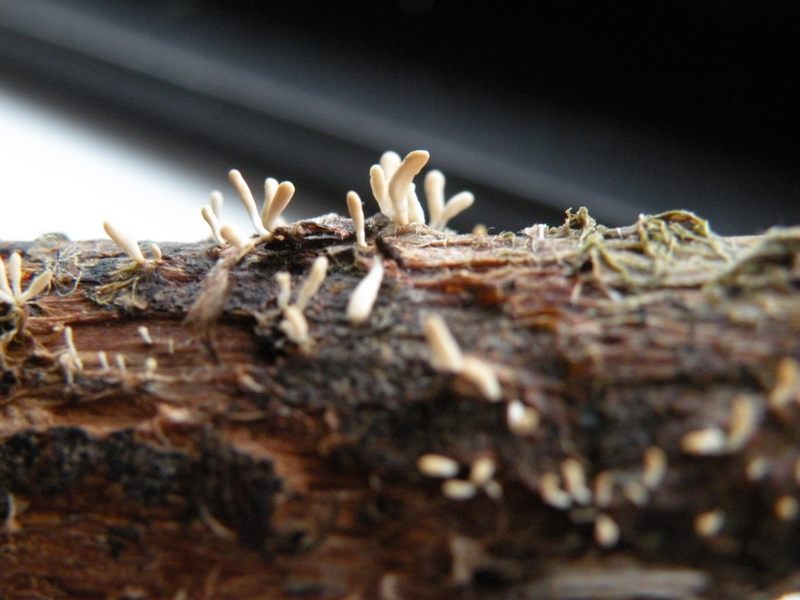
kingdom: Fungi
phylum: Basidiomycota
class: Agaricomycetes
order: Agaricales
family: Typhulaceae
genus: Typhula
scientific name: Typhula spathulata
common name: aske-trådkølle
